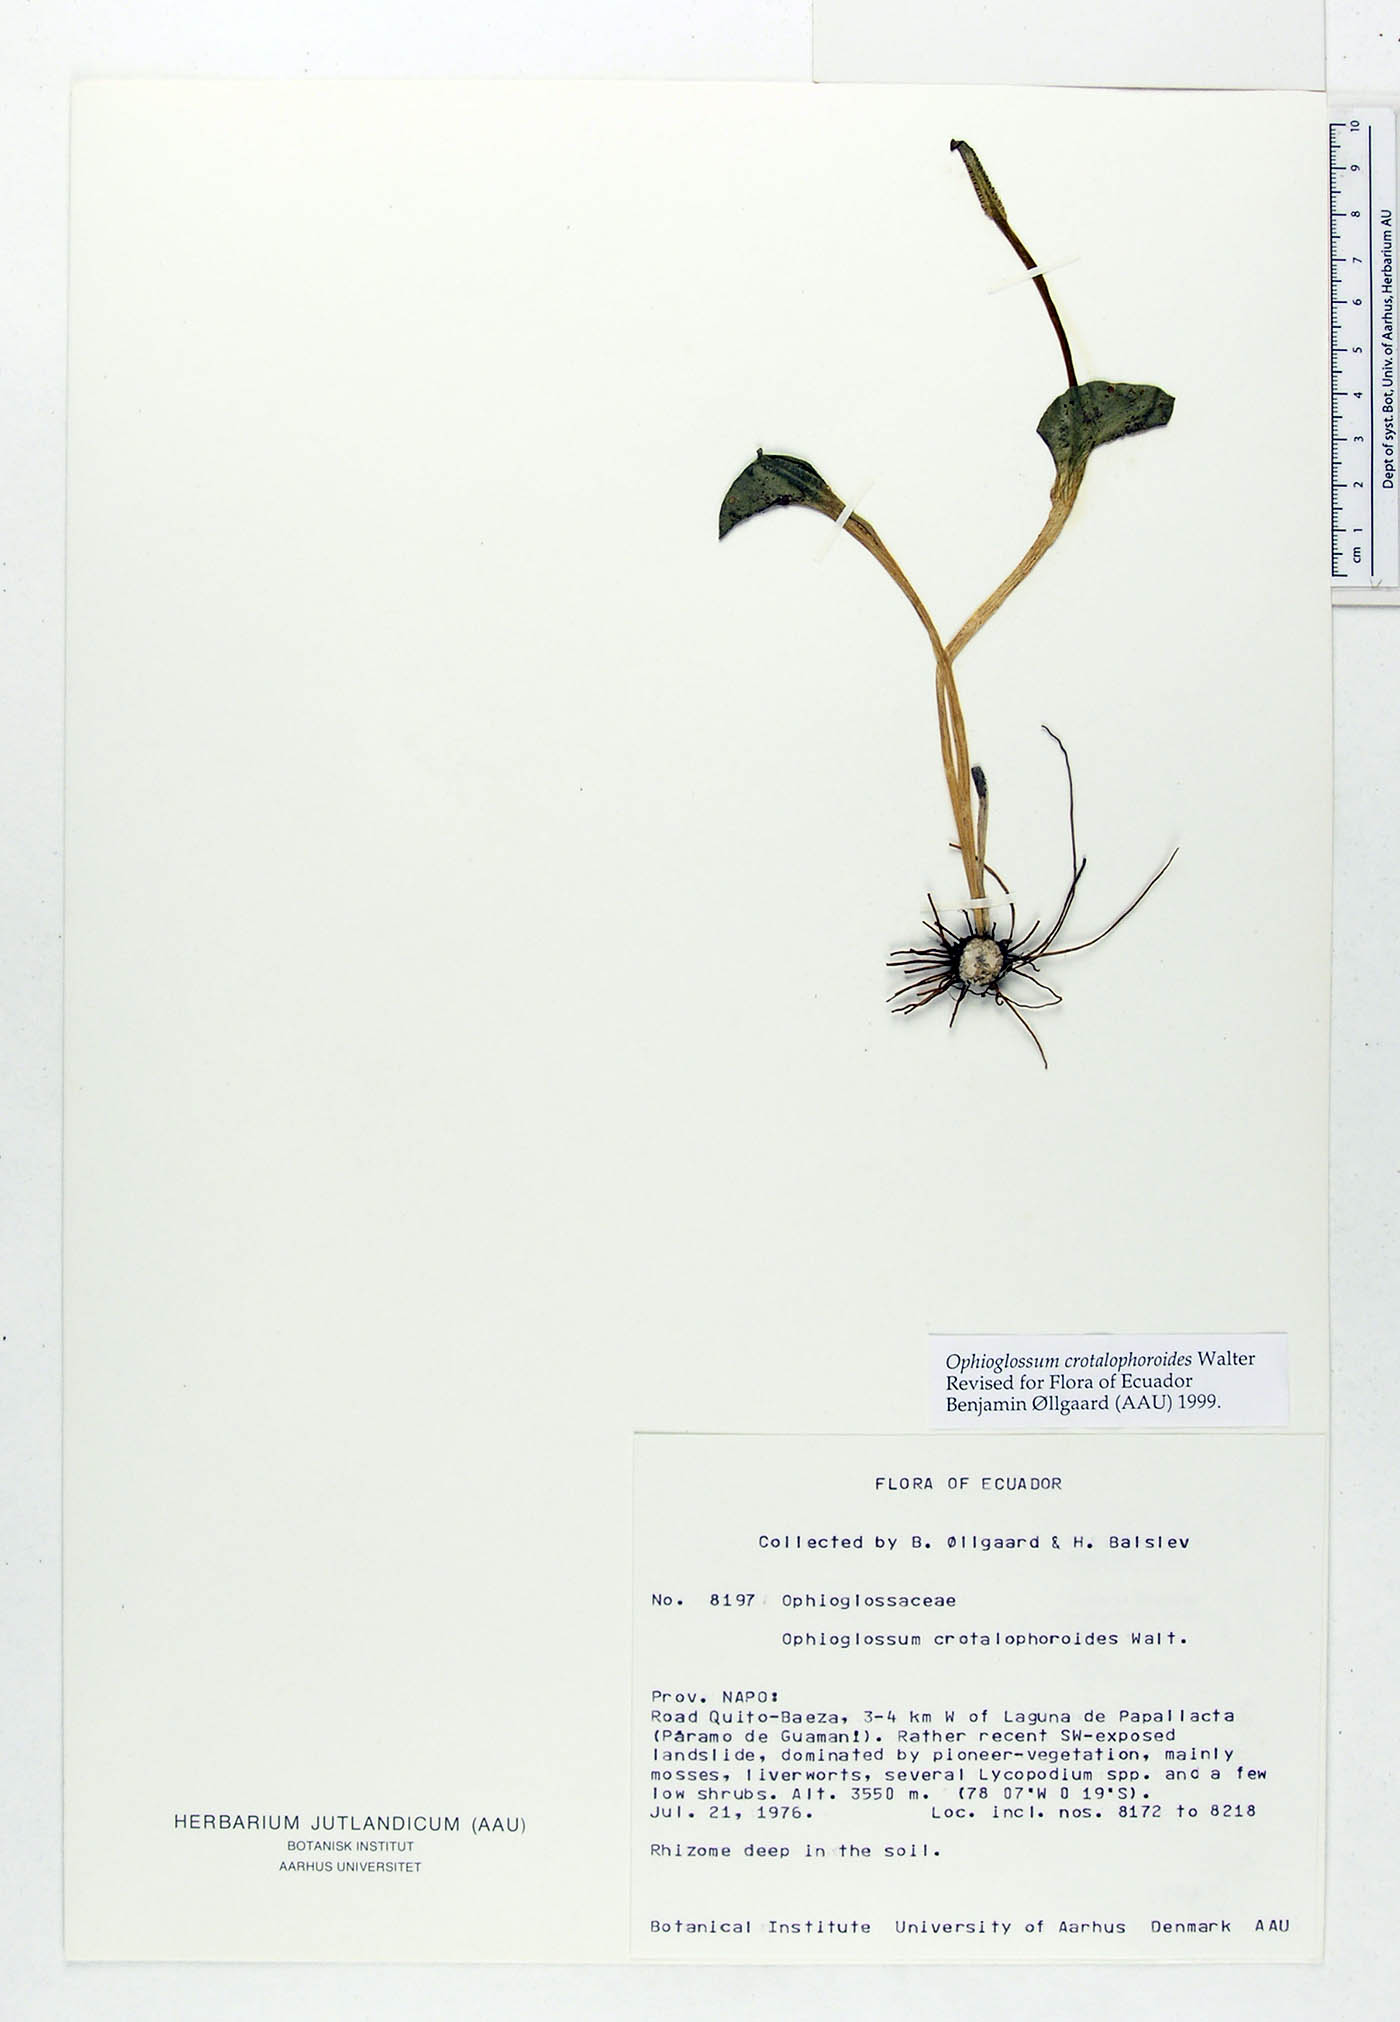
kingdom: Plantae
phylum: Tracheophyta
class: Polypodiopsida
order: Ophioglossales
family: Ophioglossaceae
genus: Ophioglossum
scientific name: Ophioglossum crotalophoroides
